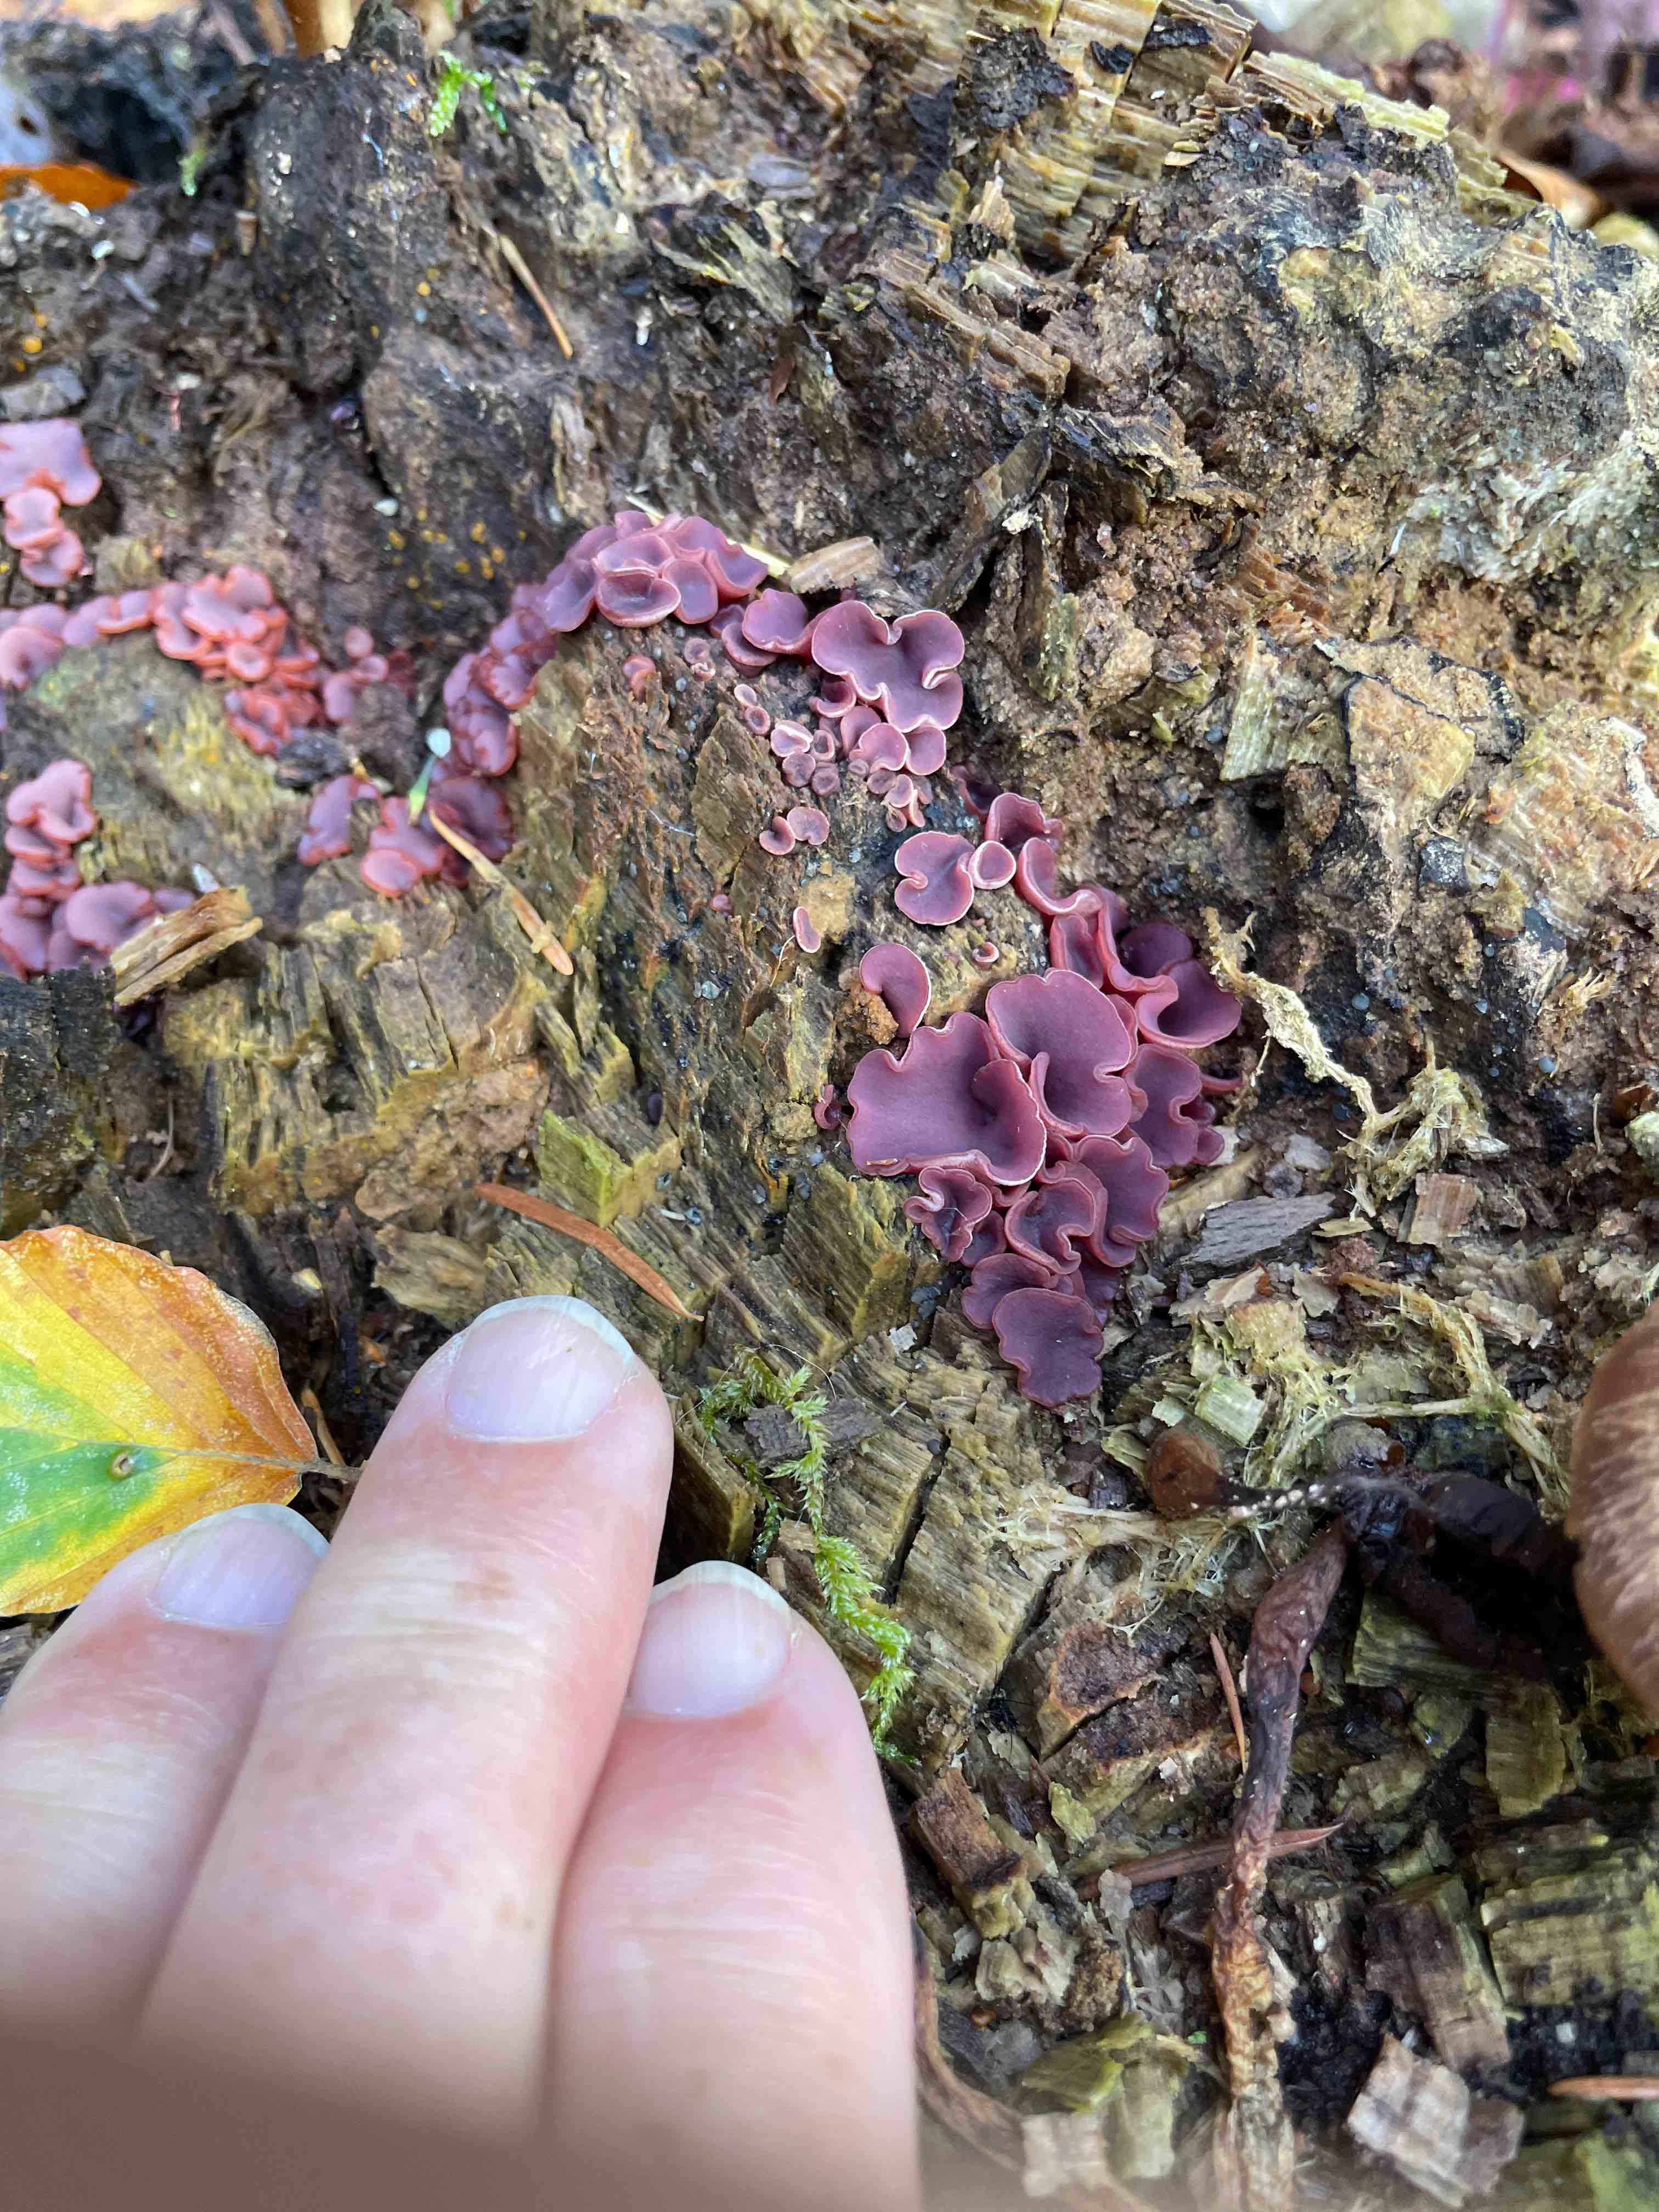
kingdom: Fungi
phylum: Ascomycota
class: Leotiomycetes
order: Helotiales
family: Gelatinodiscaceae
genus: Ascocoryne
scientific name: Ascocoryne cylichnium
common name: stor sejskive
